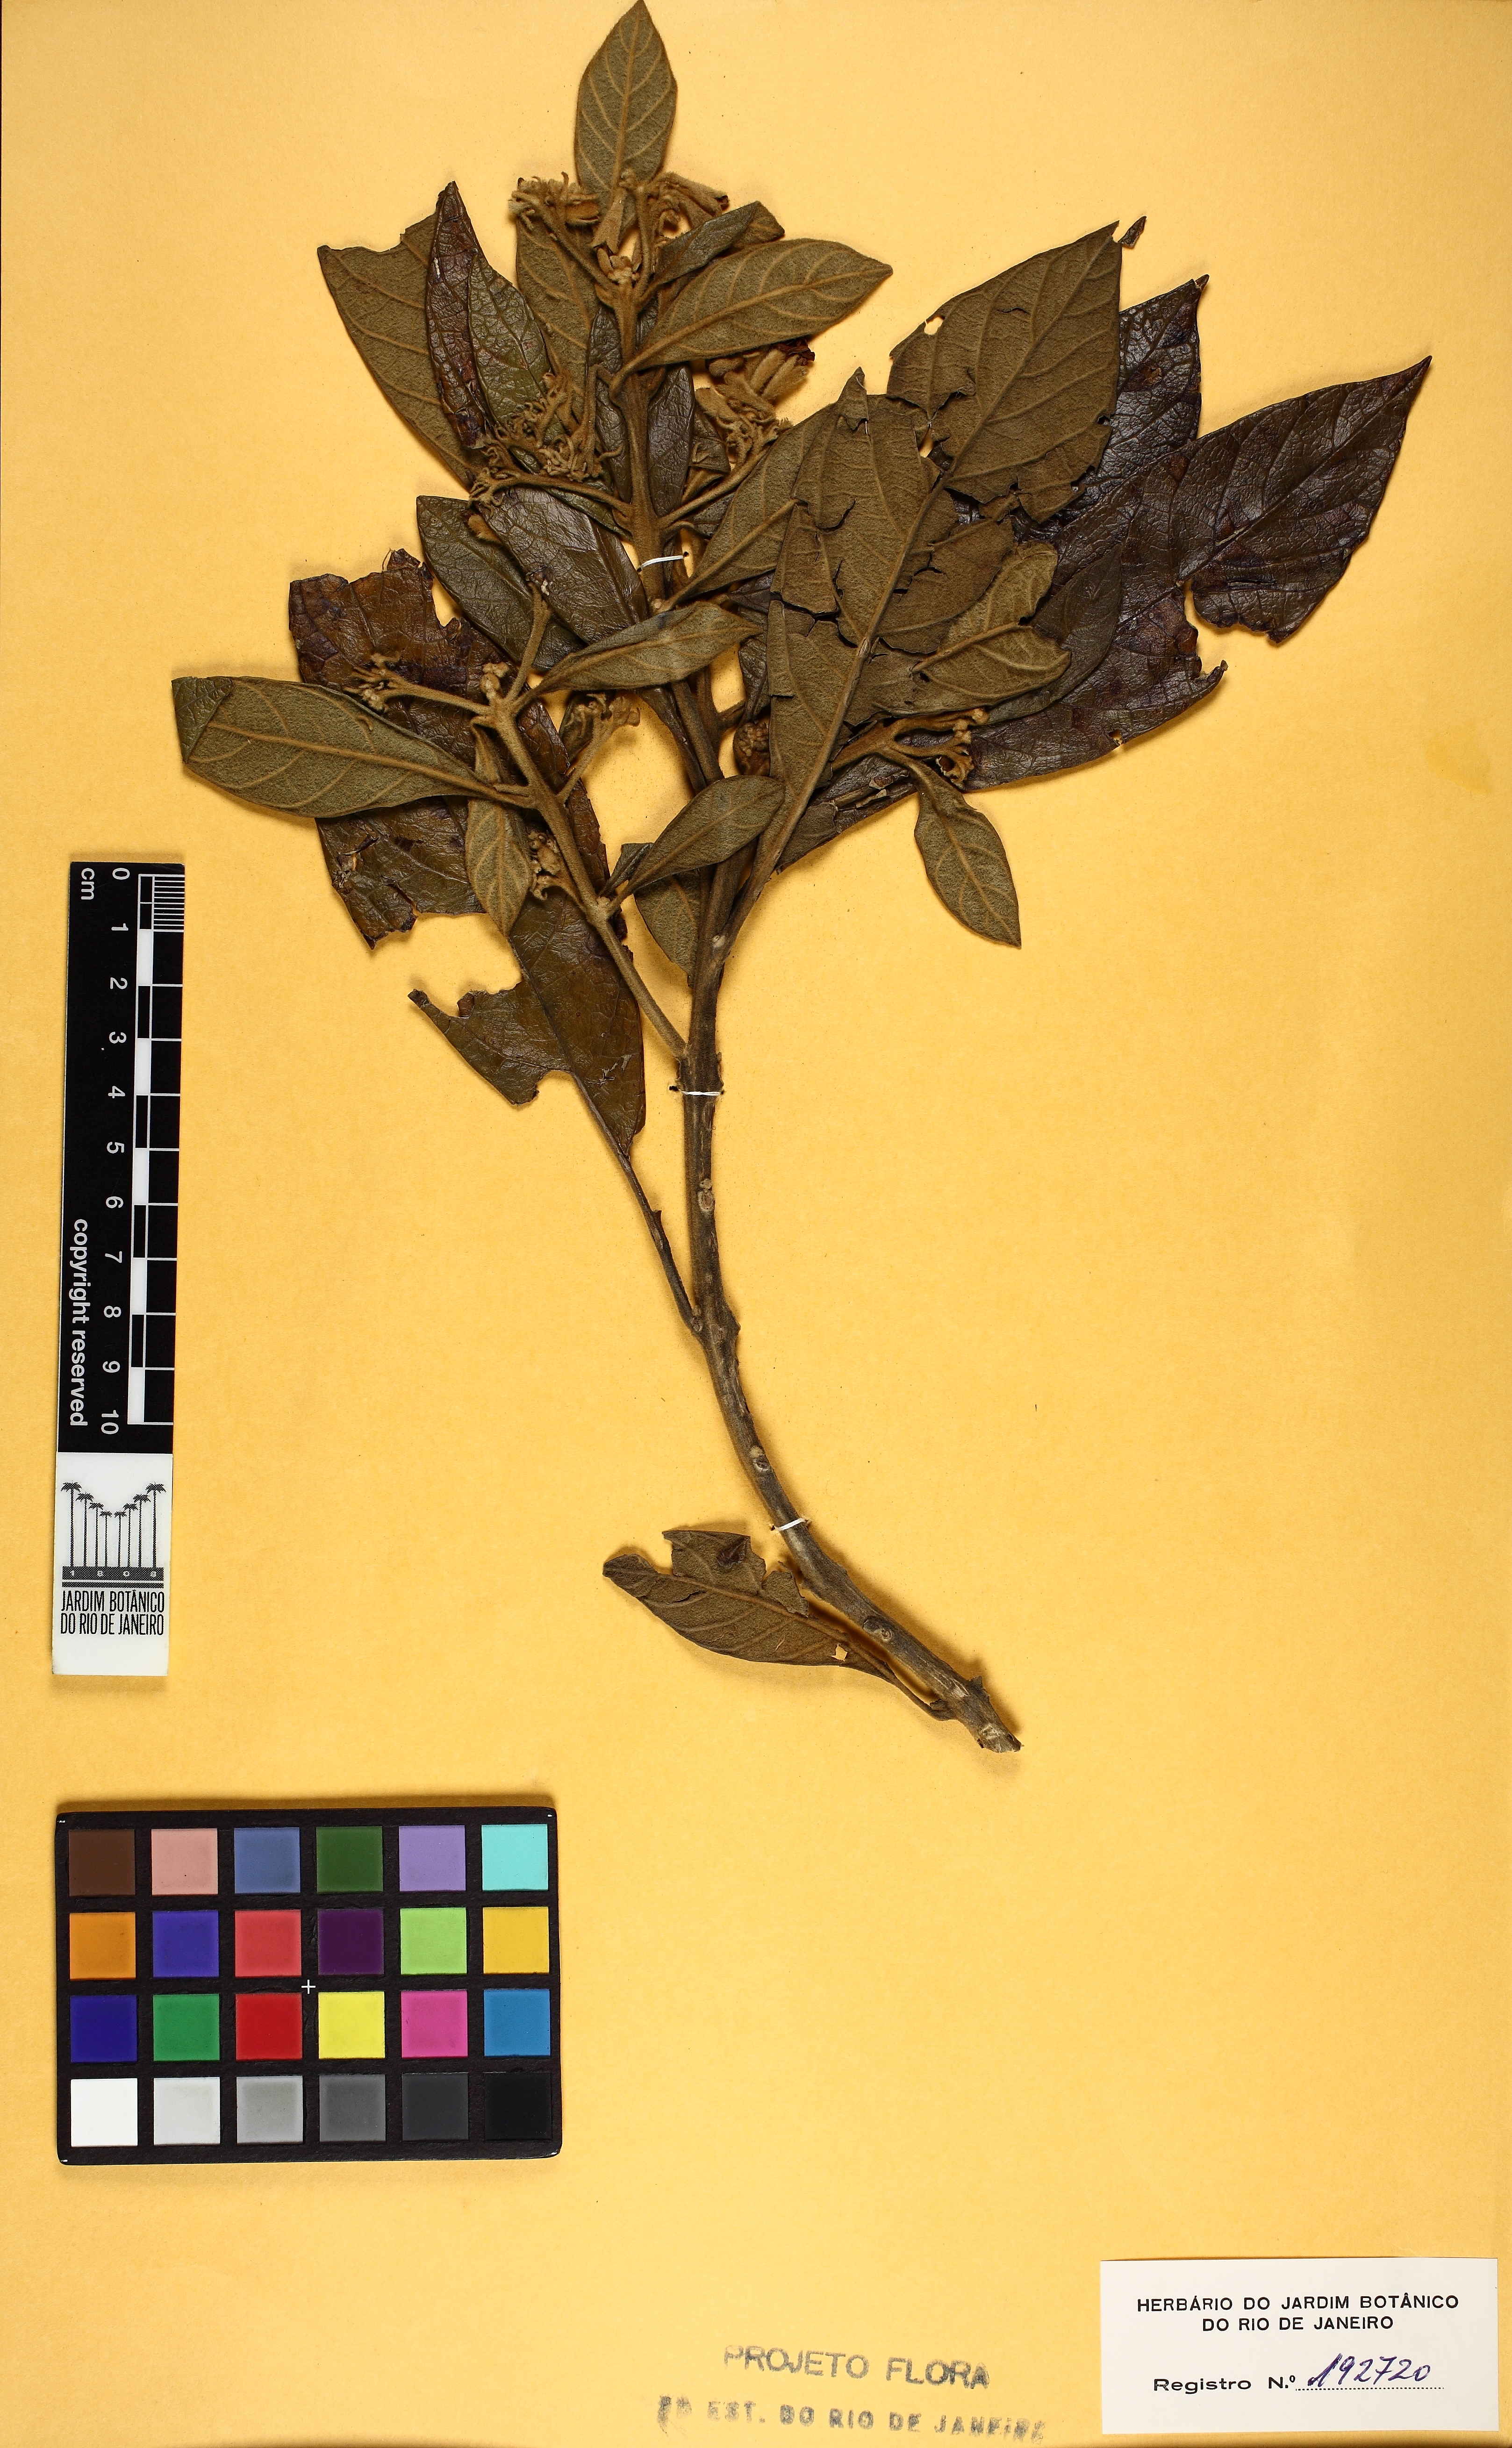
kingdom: Plantae
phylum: Tracheophyta
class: Magnoliopsida
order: Lamiales
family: Lamiaceae
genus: Aegiphila
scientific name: Aegiphila obducta
